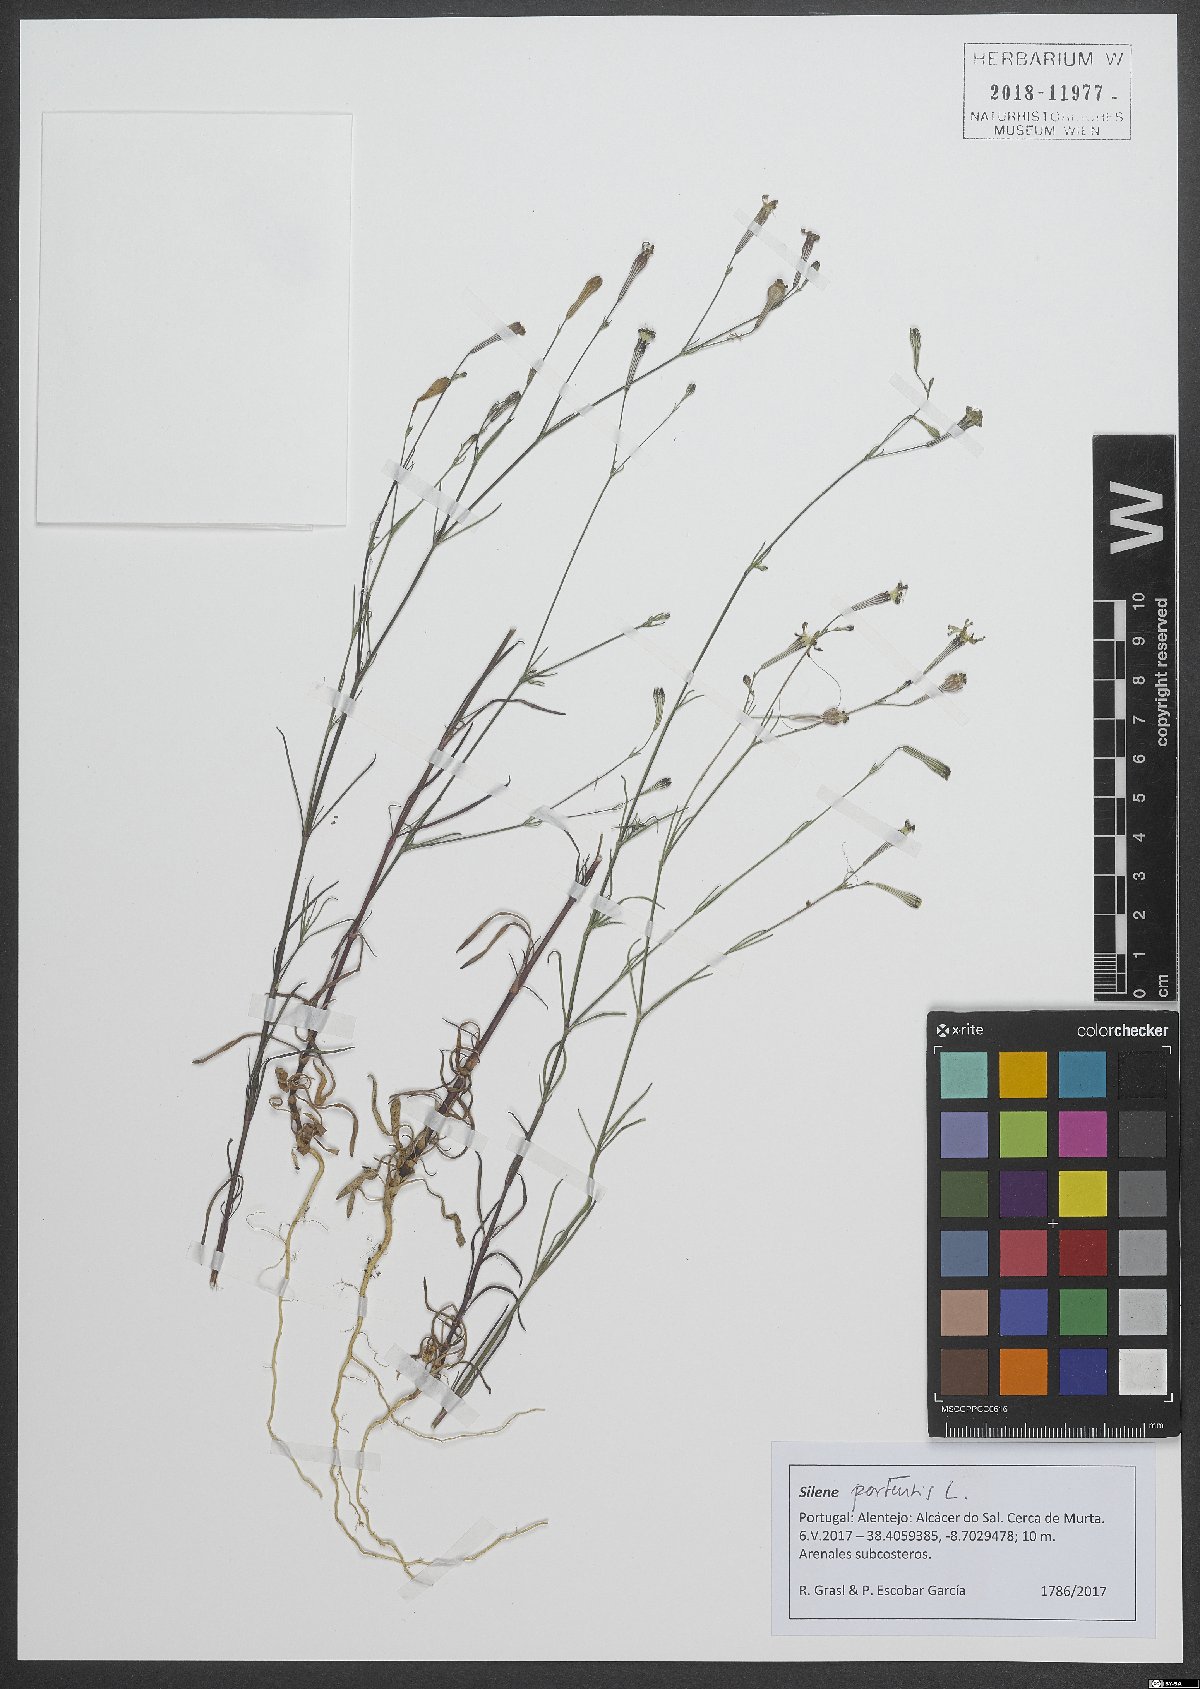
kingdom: Plantae
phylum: Tracheophyta
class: Magnoliopsida
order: Caryophyllales
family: Caryophyllaceae
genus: Silene
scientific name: Silene portensis
